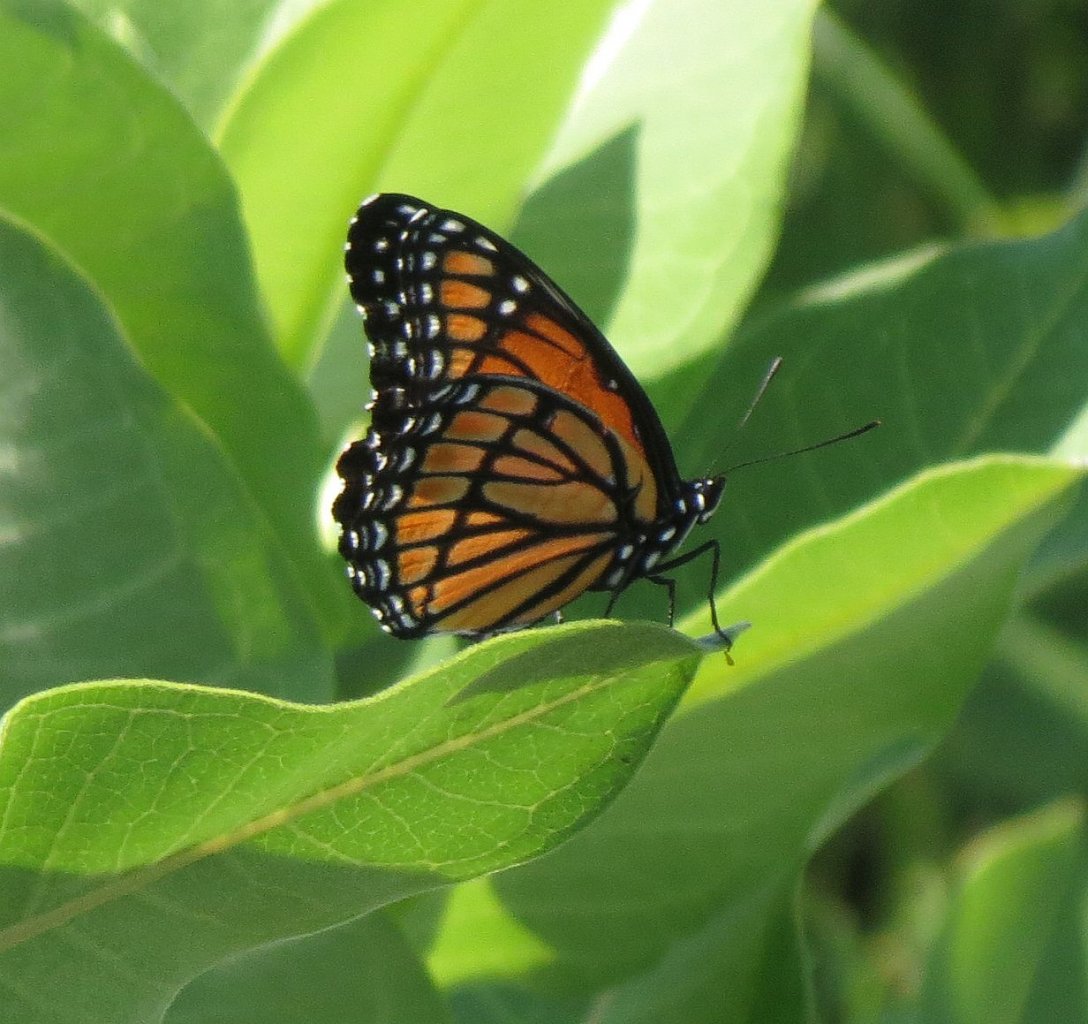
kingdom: Animalia
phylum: Arthropoda
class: Insecta
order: Lepidoptera
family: Nymphalidae
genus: Limenitis
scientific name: Limenitis archippus
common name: Viceroy
